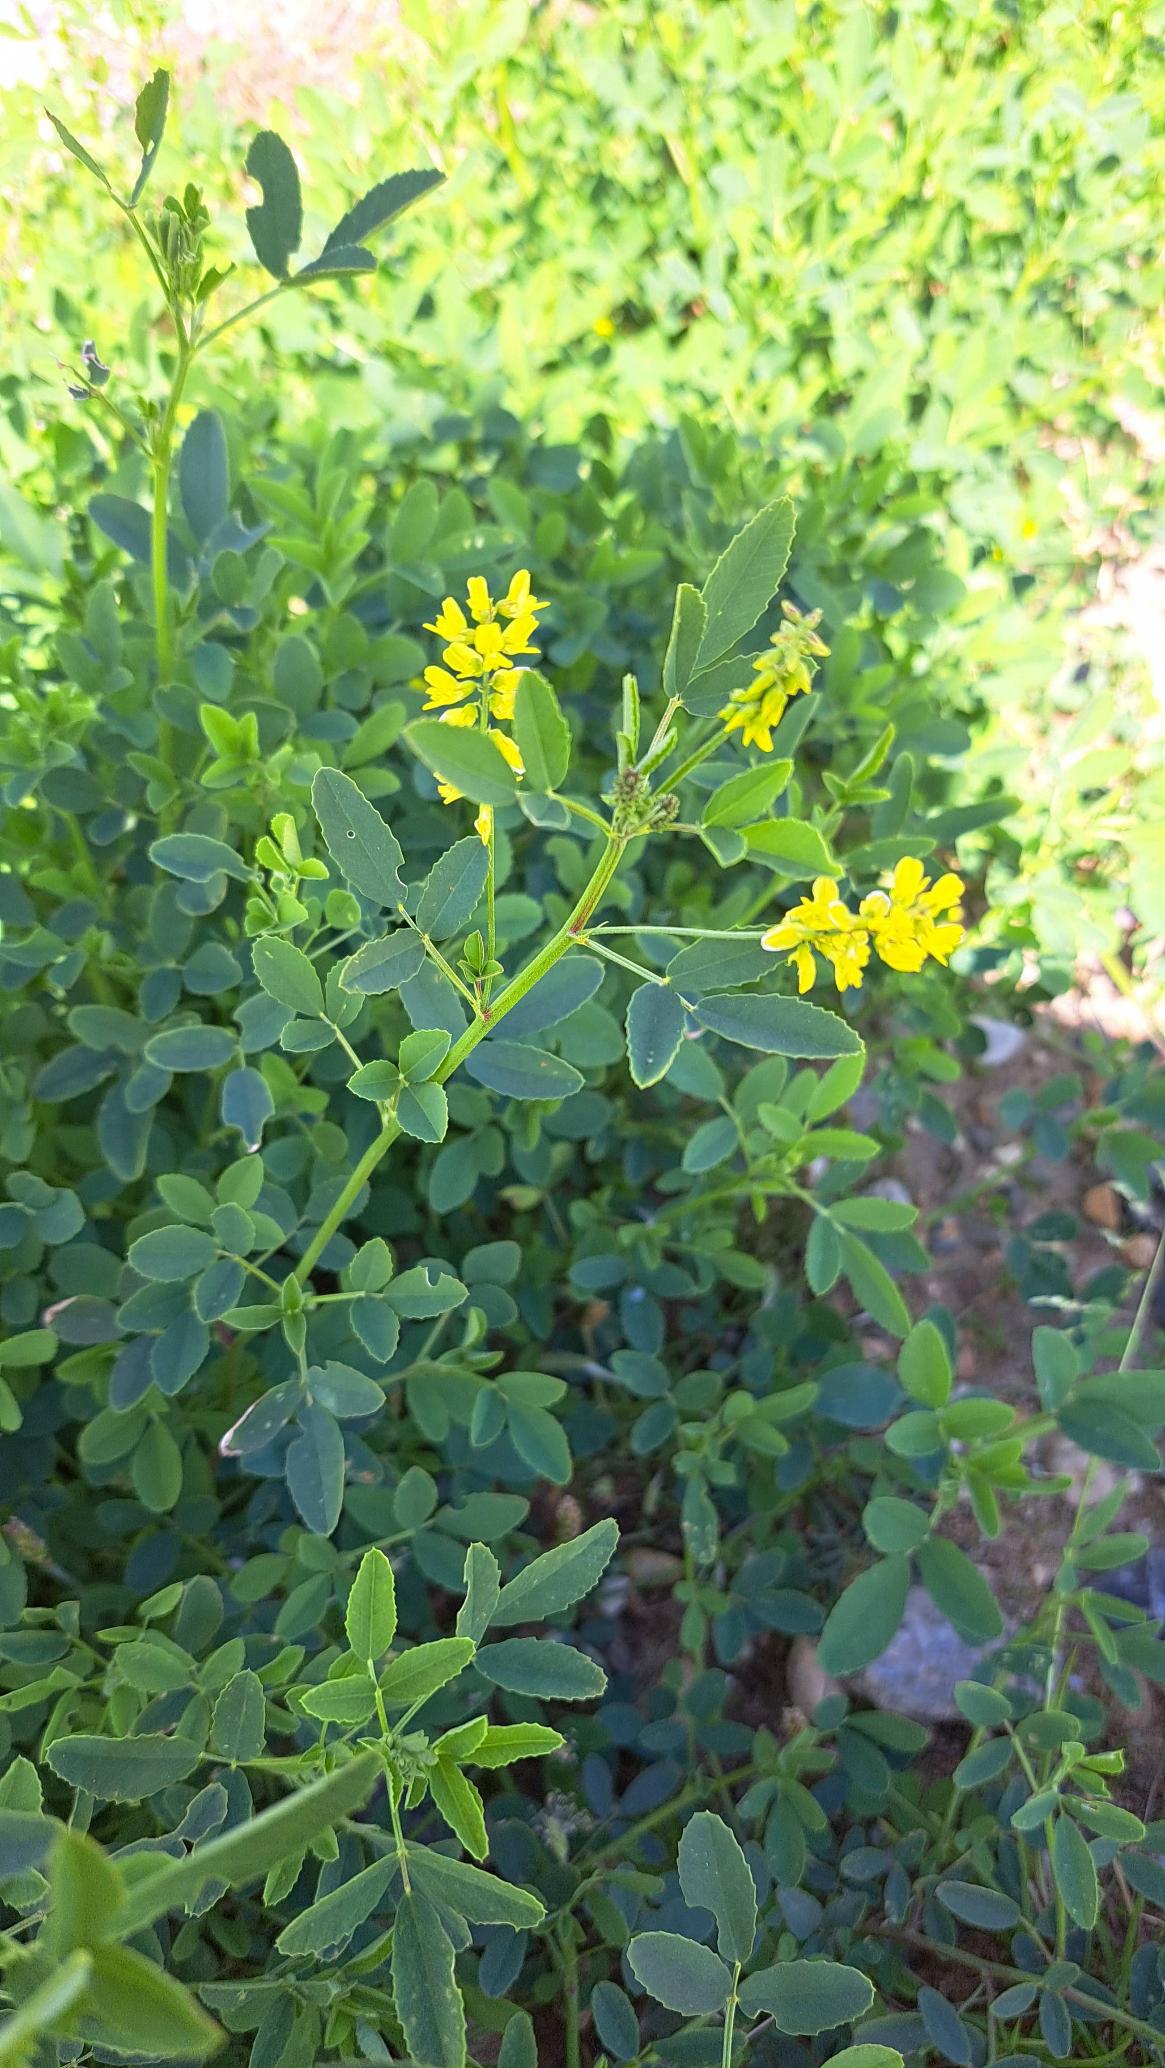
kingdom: Plantae
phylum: Tracheophyta
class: Magnoliopsida
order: Fabales
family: Fabaceae
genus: Melilotus
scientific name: Melilotus officinalis
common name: Mark-stenkløver
